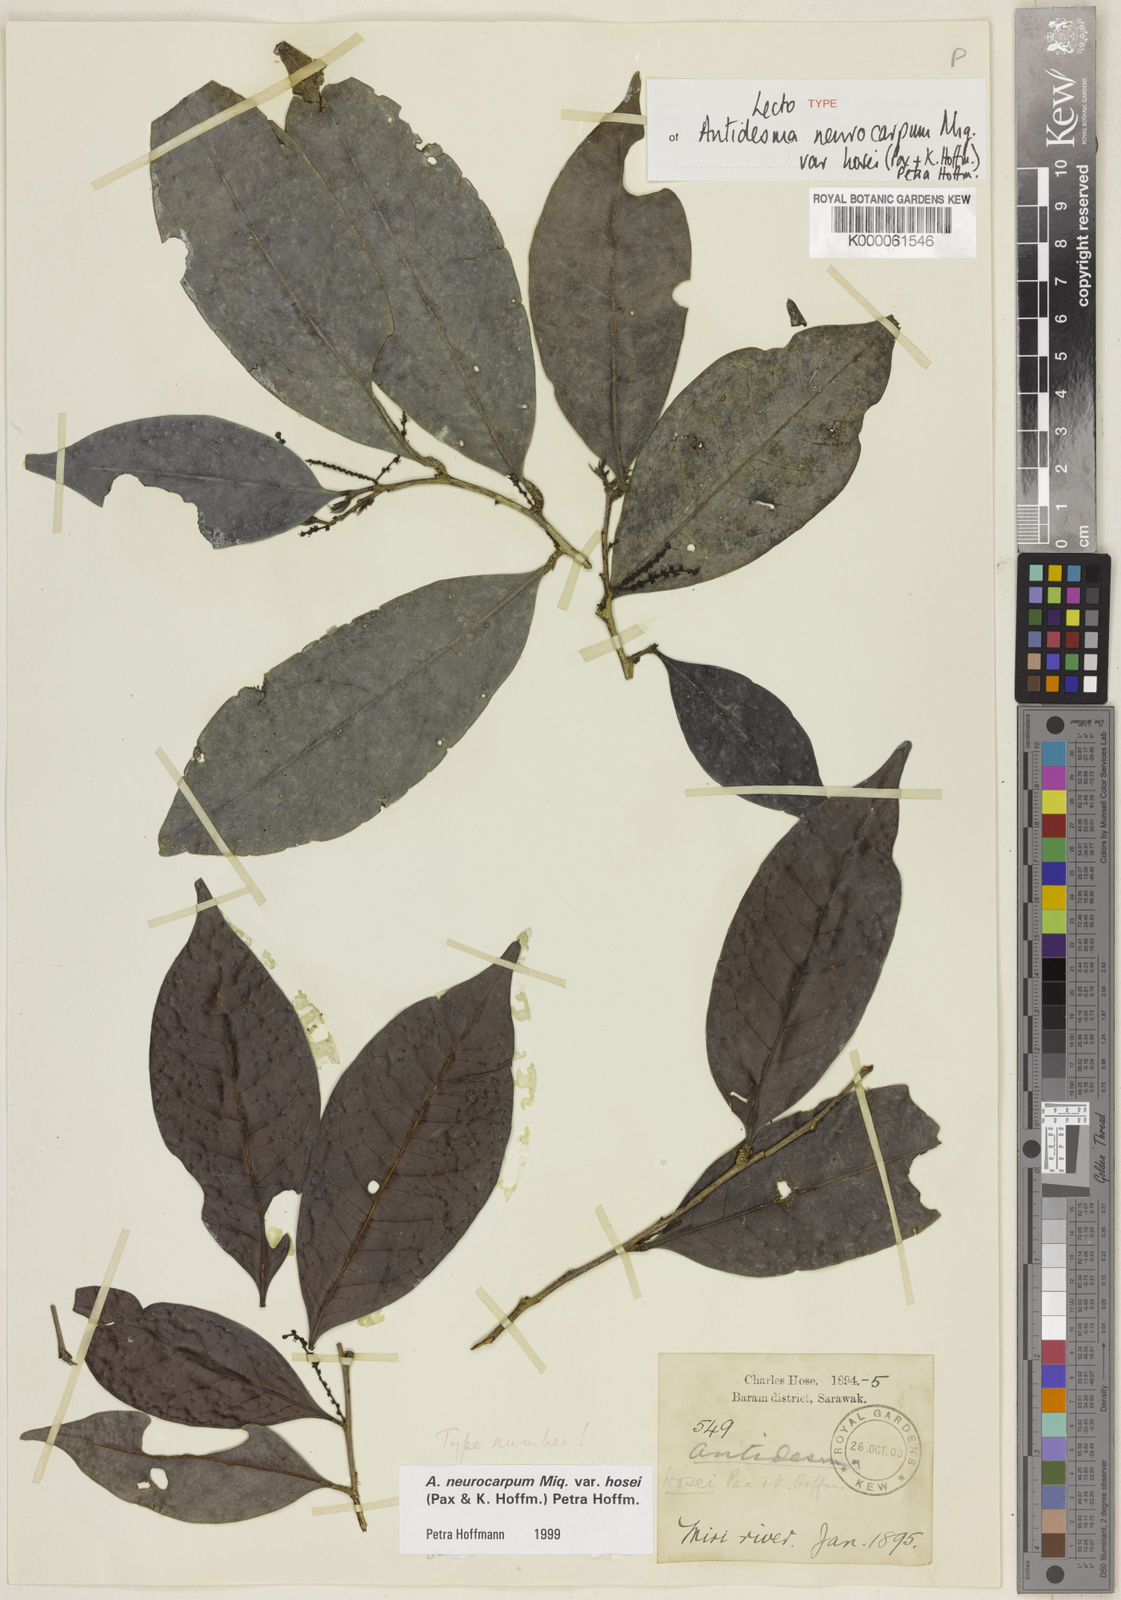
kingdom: Plantae
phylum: Tracheophyta
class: Magnoliopsida
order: Malpighiales
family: Phyllanthaceae
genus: Antidesma
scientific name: Antidesma neurocarpum
